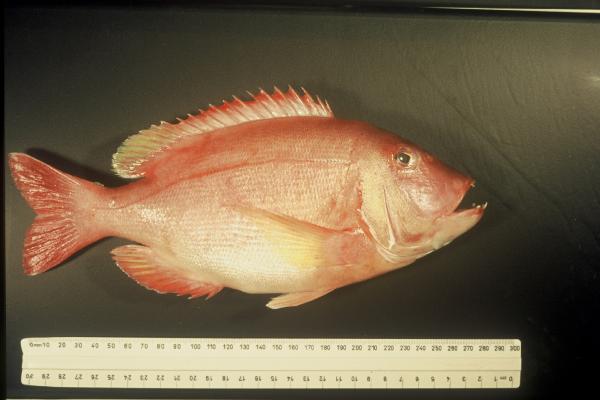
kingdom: Animalia
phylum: Chordata
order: Perciformes
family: Sparidae
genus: Porcostoma
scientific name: Porcostoma dentata
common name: Dane
